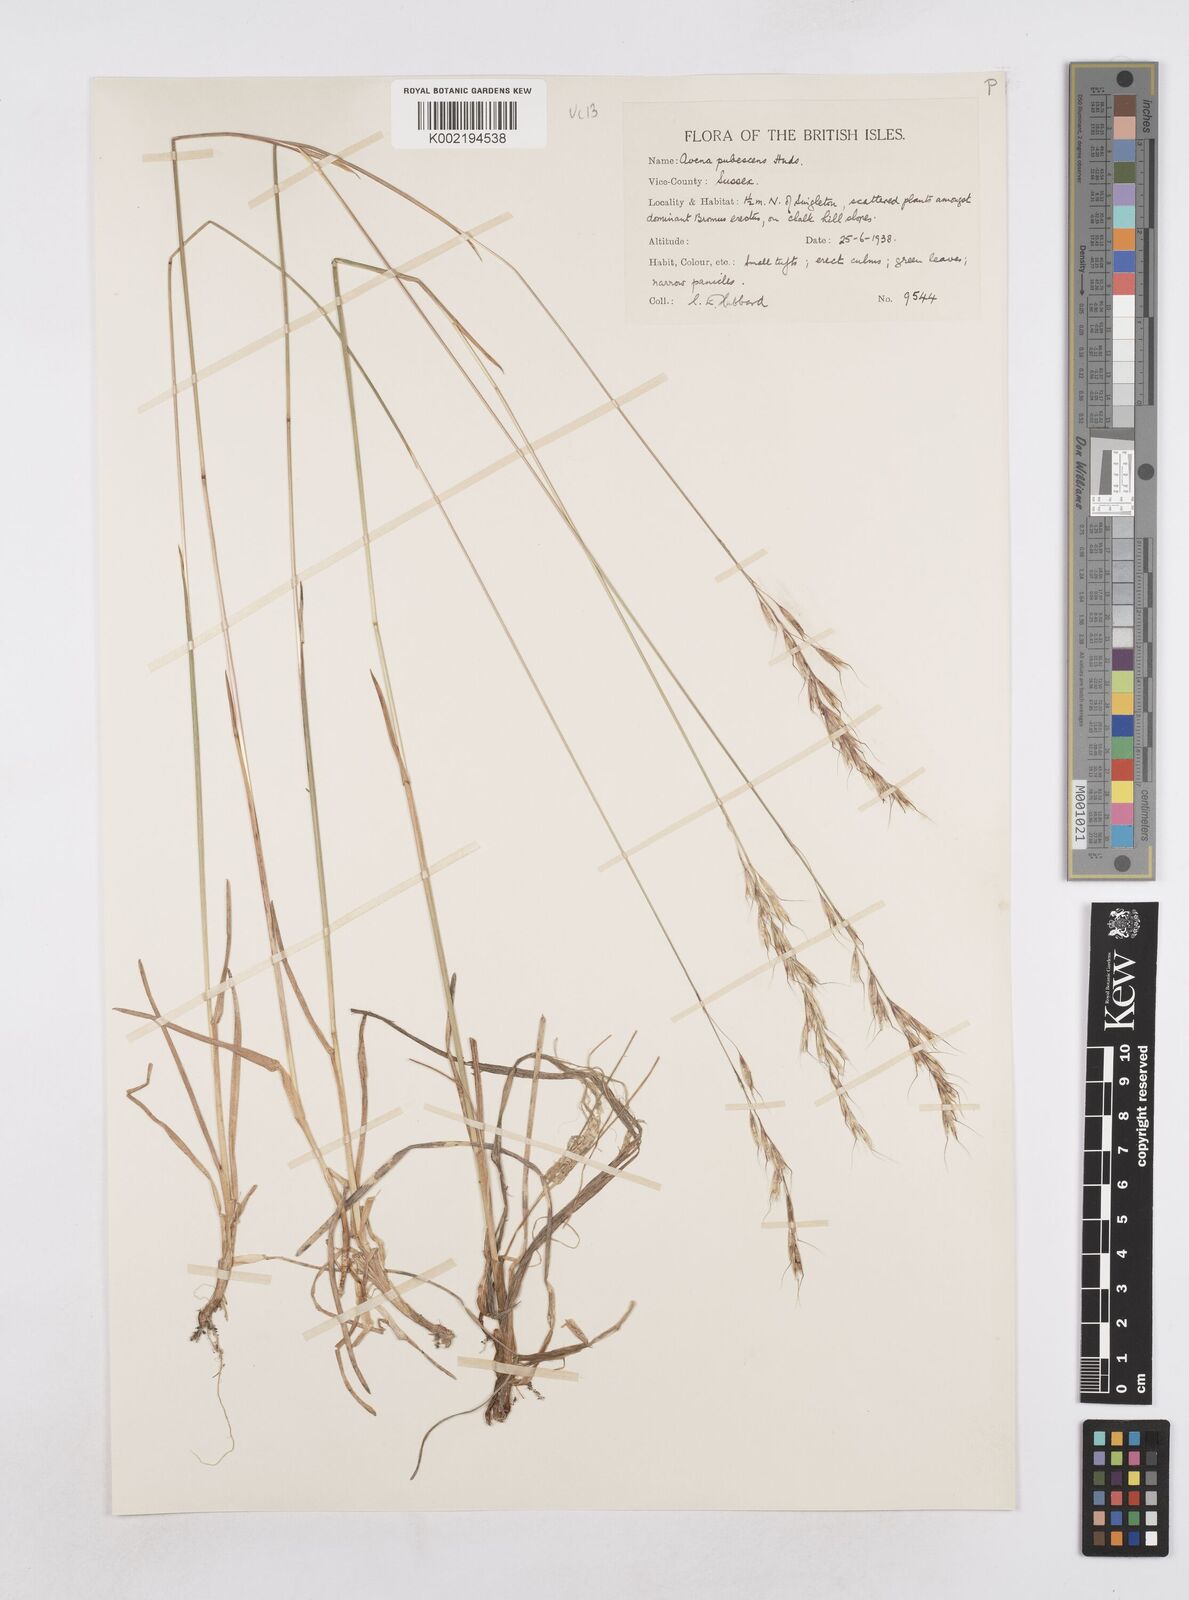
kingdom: Plantae
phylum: Tracheophyta
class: Liliopsida
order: Poales
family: Poaceae
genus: Avenula
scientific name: Avenula pubescens
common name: Downy alpine oatgrass
